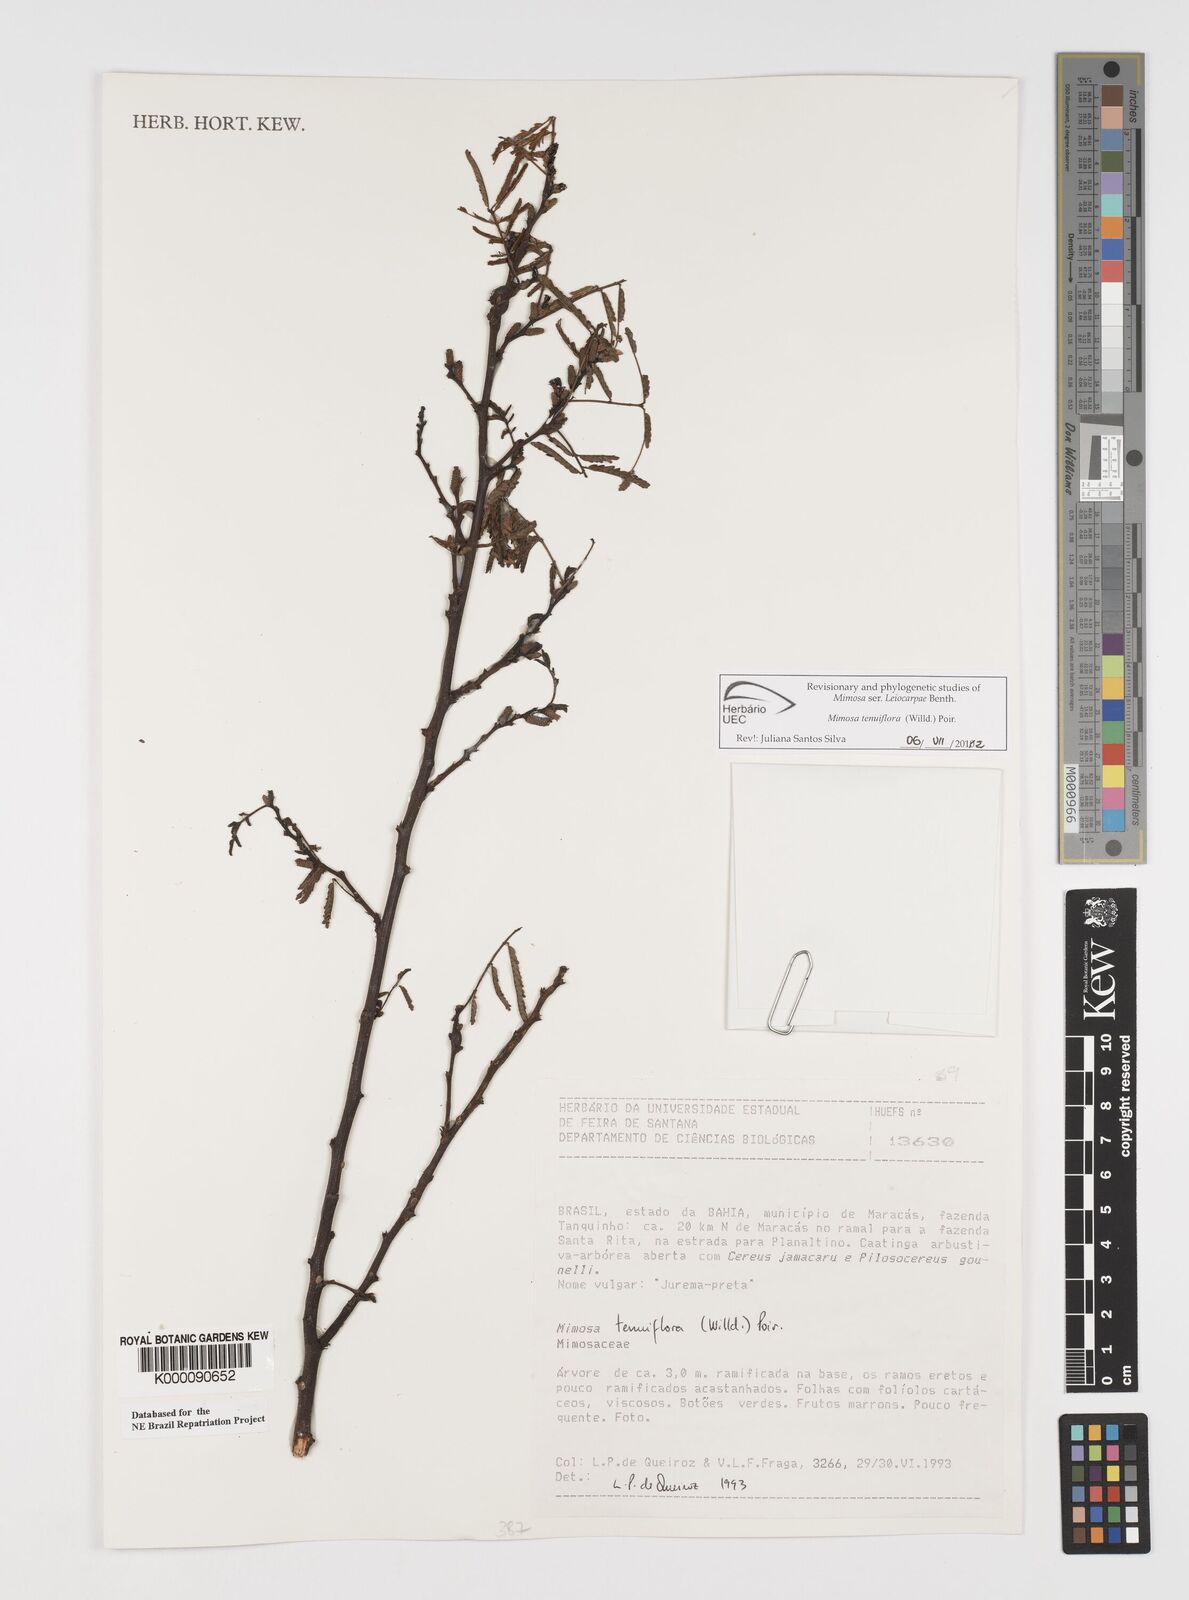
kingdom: Plantae
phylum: Tracheophyta
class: Magnoliopsida
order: Fabales
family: Fabaceae
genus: Mimosa
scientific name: Mimosa tenuiflora
